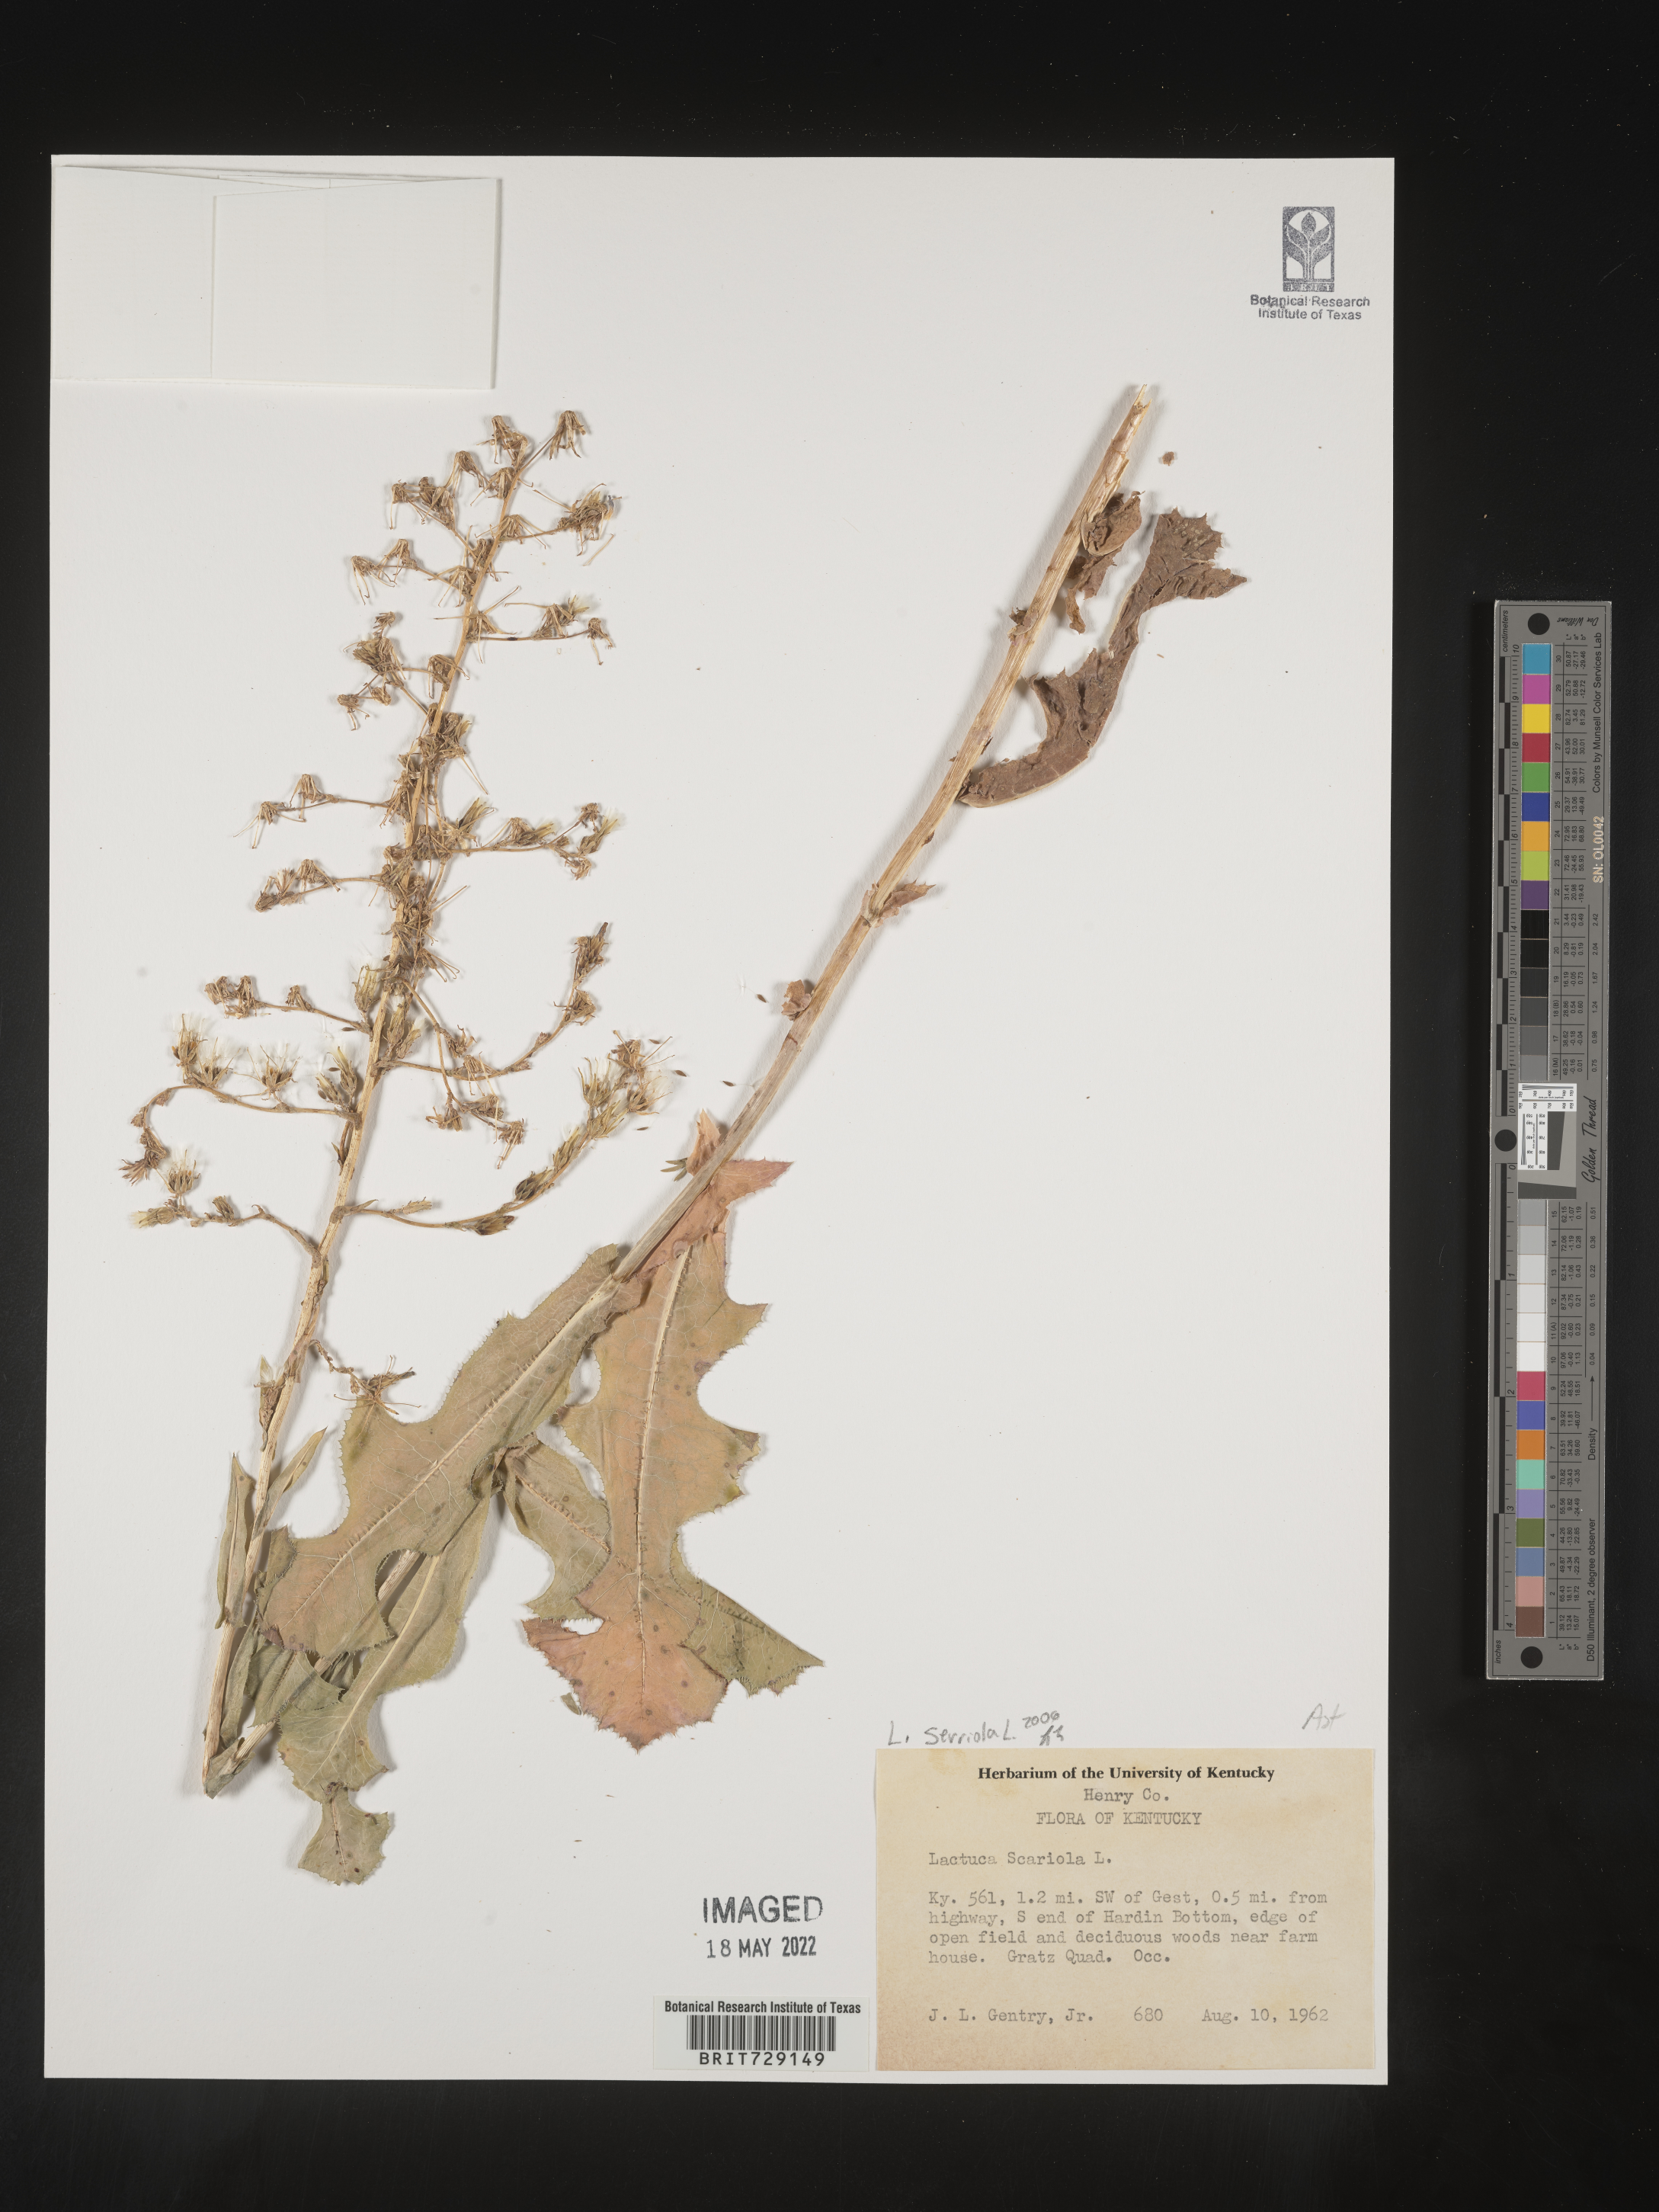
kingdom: Plantae
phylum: Tracheophyta
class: Magnoliopsida
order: Asterales
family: Asteraceae
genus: Lactuca
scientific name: Lactuca serriola
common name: Prickly lettuce
